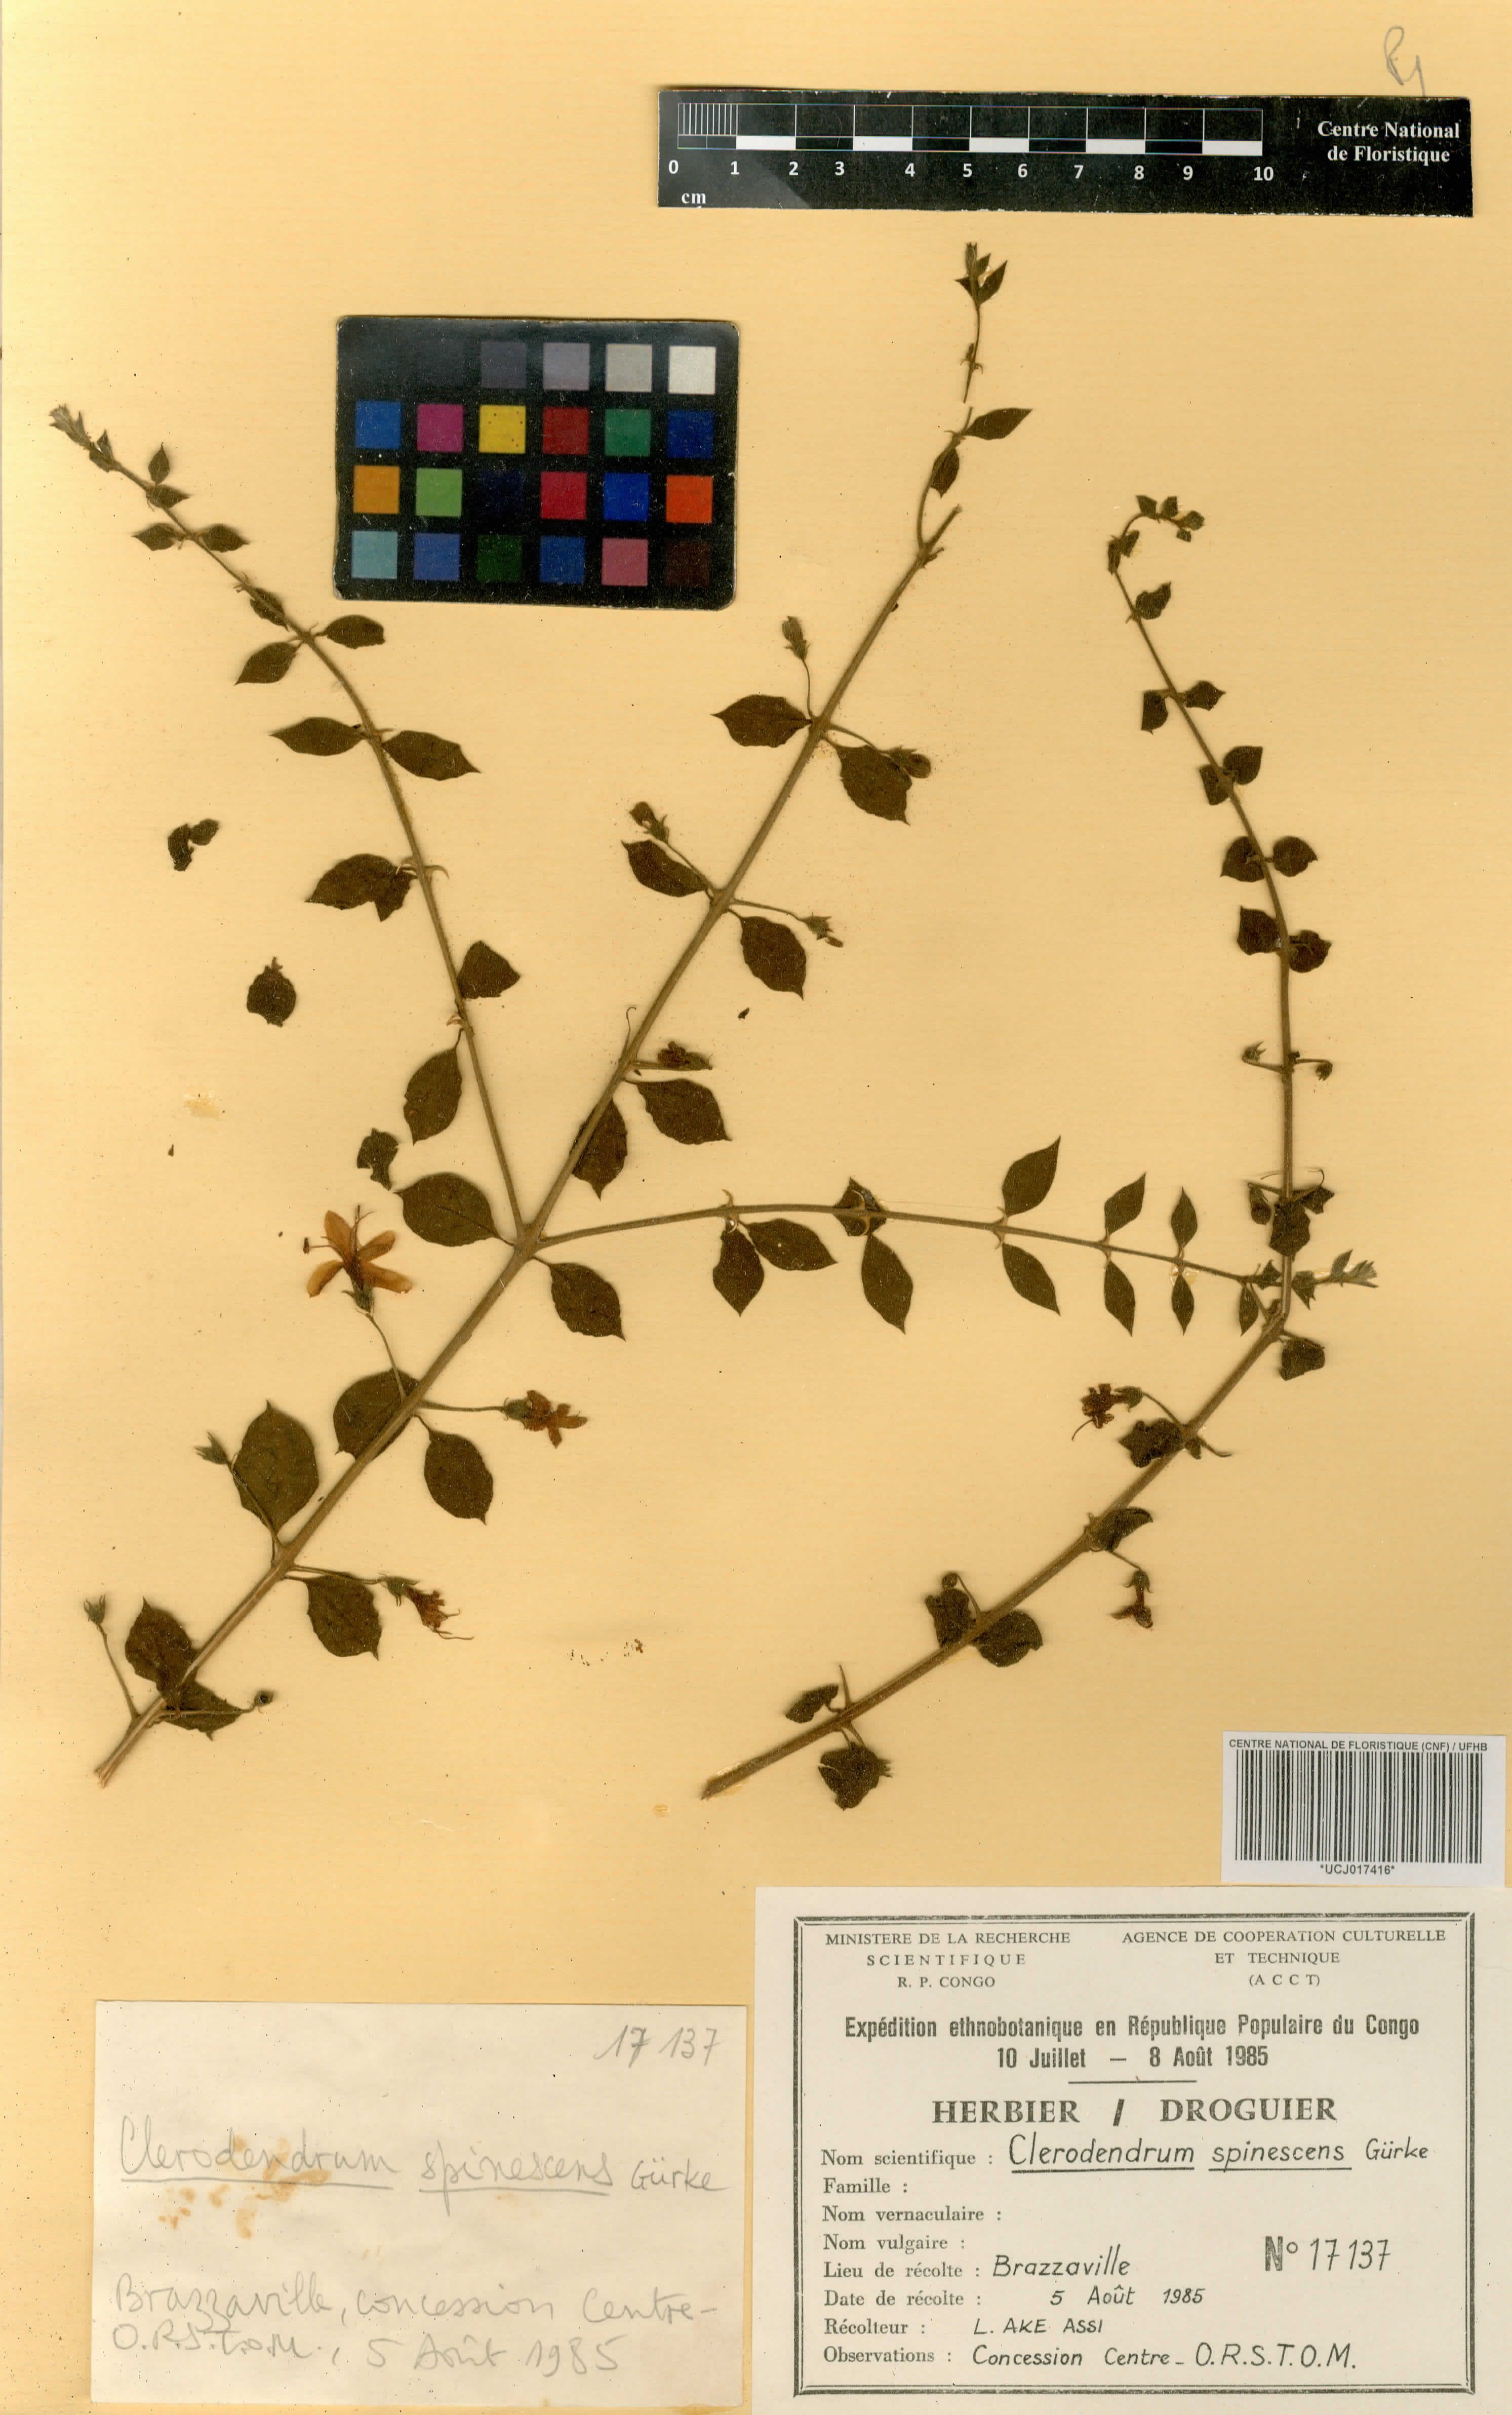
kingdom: Plantae
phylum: Tracheophyta
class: Magnoliopsida
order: Lamiales
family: Lamiaceae
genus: Kalaharia
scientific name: Kalaharia uncinata
